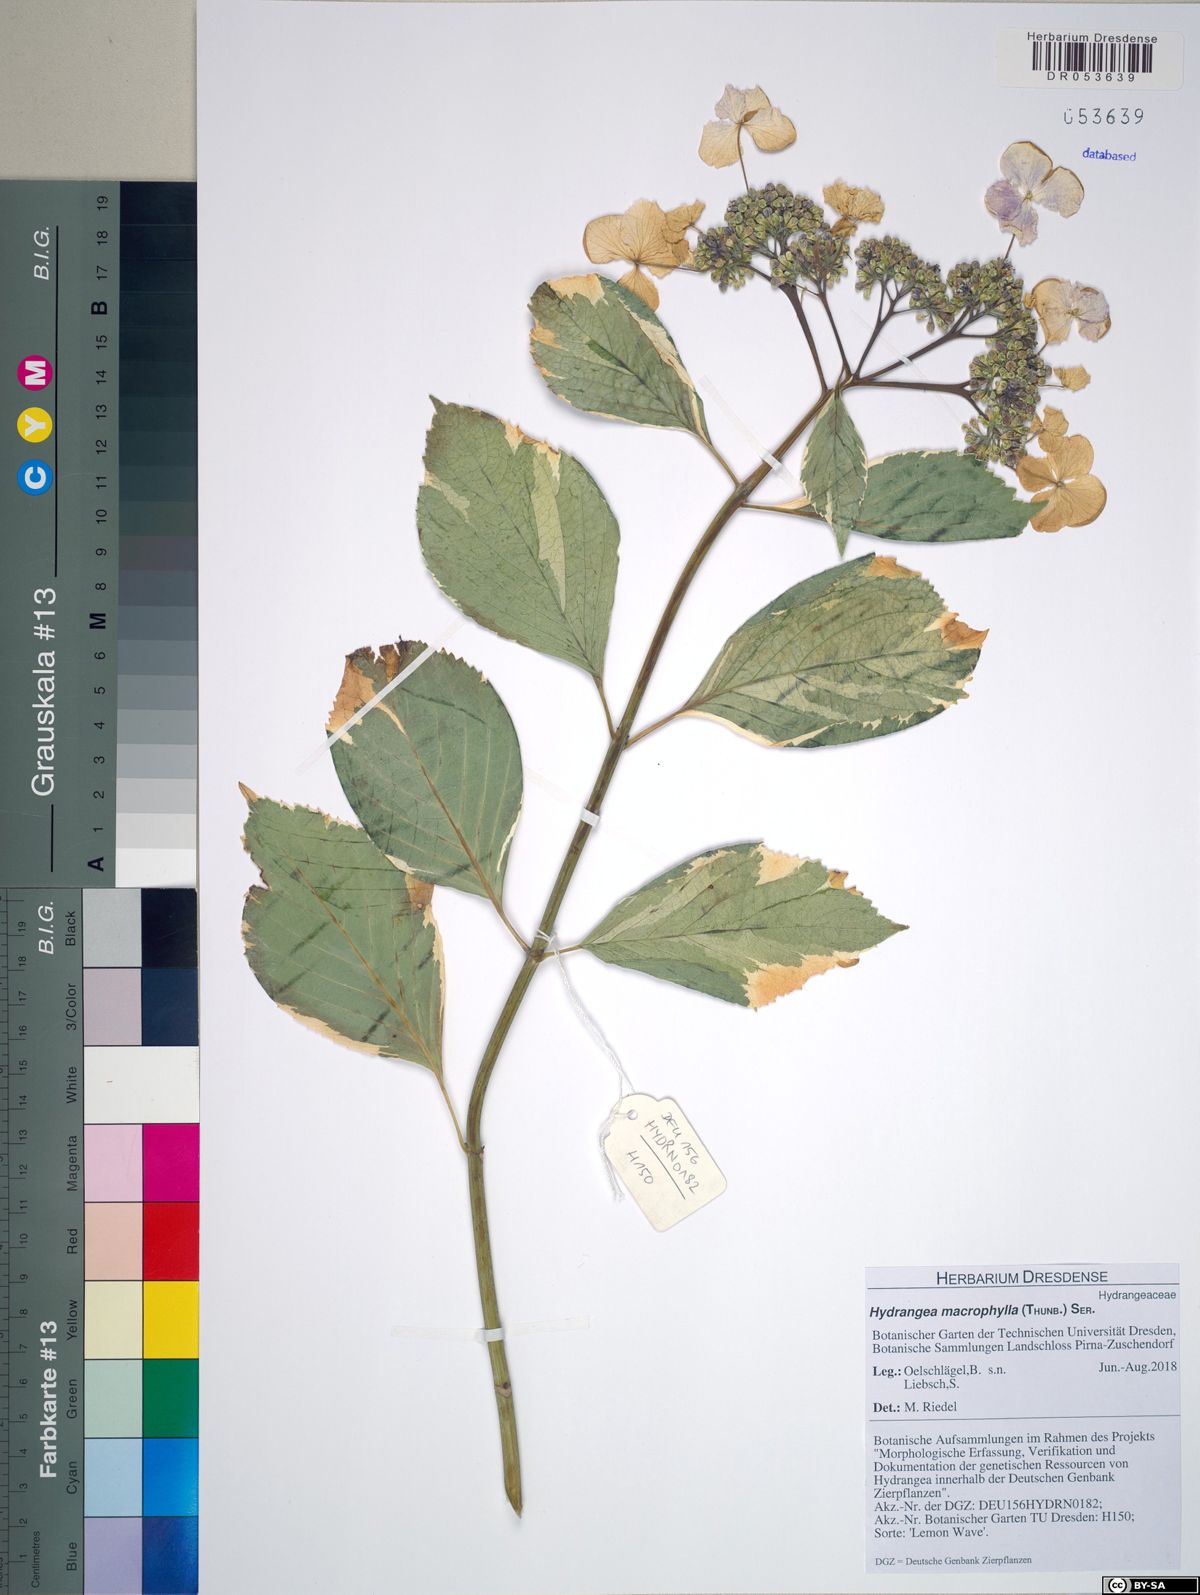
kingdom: Plantae
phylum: Tracheophyta
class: Magnoliopsida
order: Cornales
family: Hydrangeaceae
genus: Hydrangea
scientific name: Hydrangea macrophylla
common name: Hydrangea
